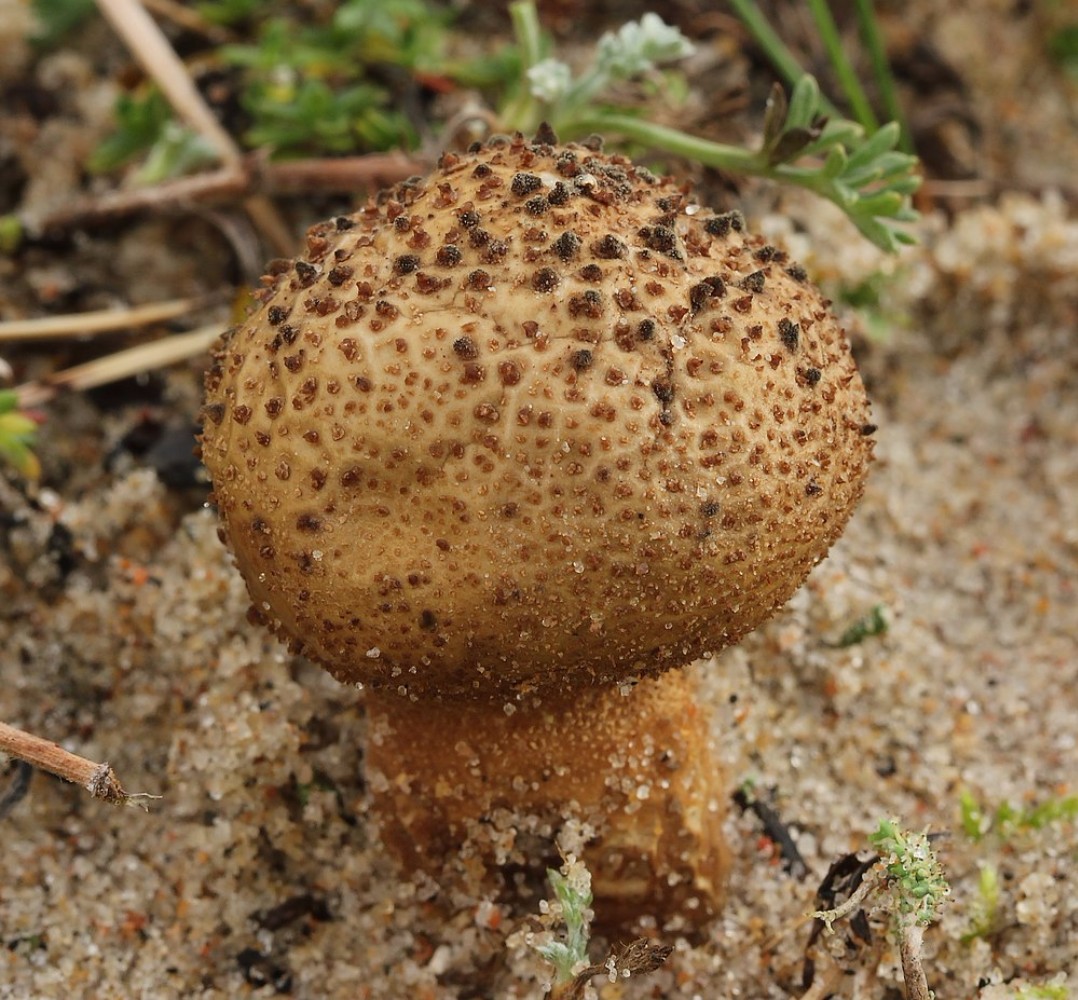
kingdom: Fungi
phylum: Basidiomycota
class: Agaricomycetes
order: Agaricales
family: Agaricaceae
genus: Lycoperdon
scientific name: Lycoperdon
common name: støvbold
